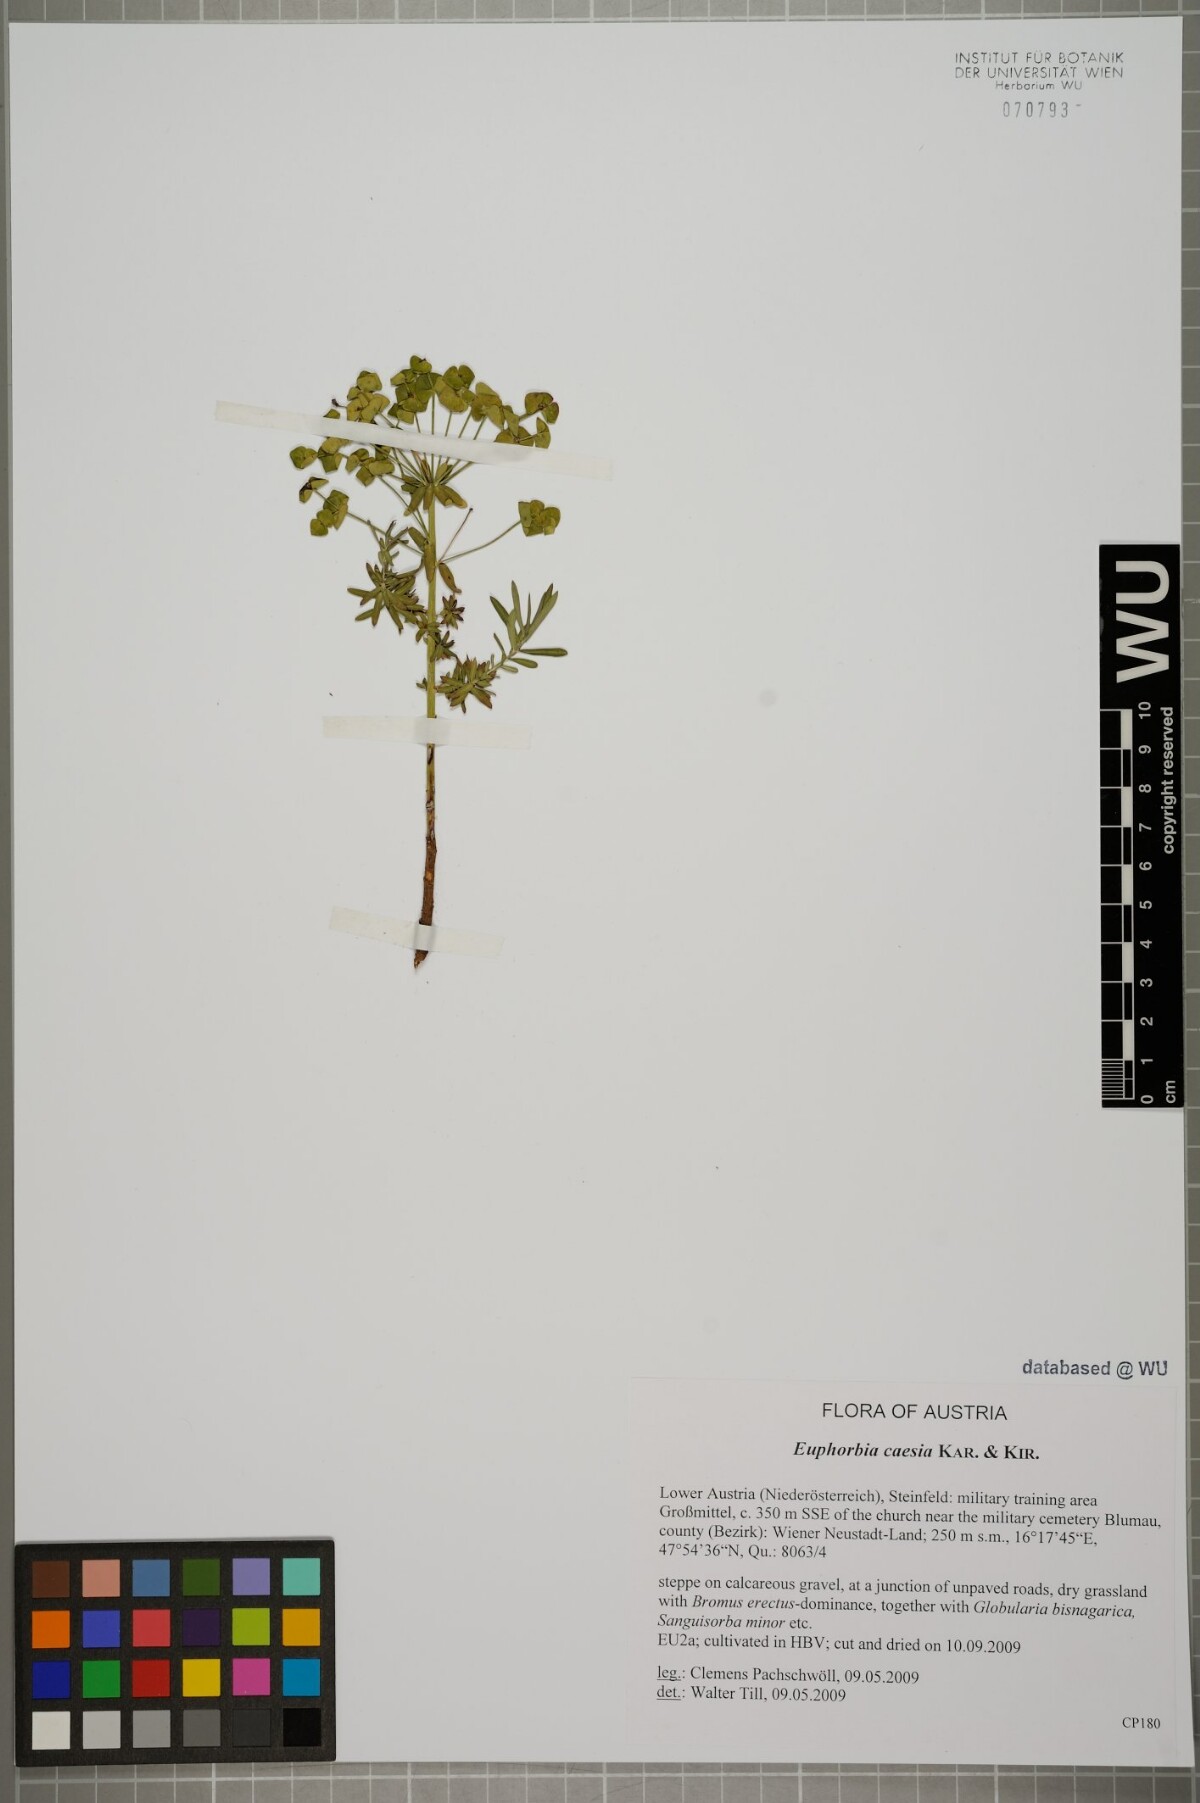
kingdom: Plantae
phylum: Tracheophyta
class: Magnoliopsida
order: Malpighiales
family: Euphorbiaceae
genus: Euphorbia
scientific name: Euphorbia caesia
